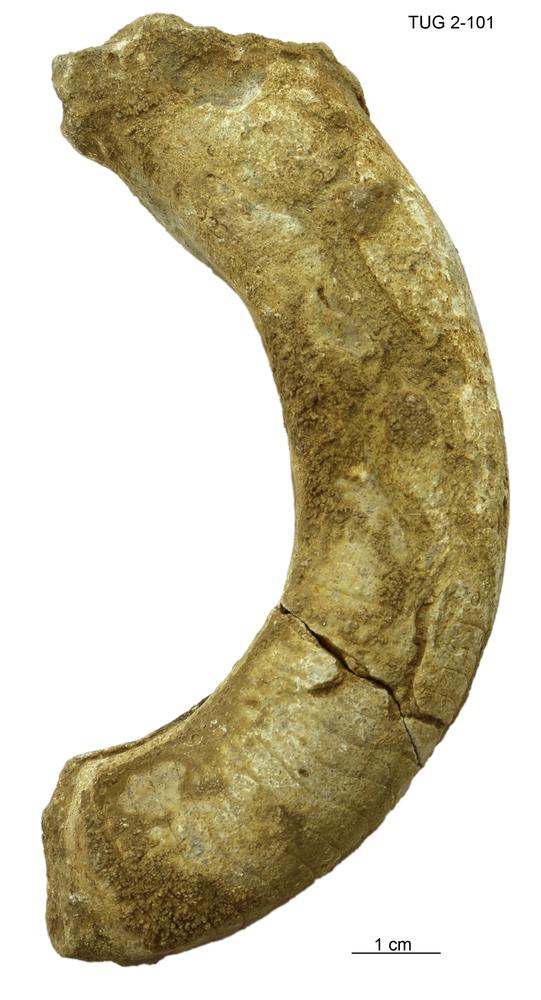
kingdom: Animalia
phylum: Mollusca
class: Cephalopoda
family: Trocholitidae
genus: Discoceras
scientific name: Discoceras
